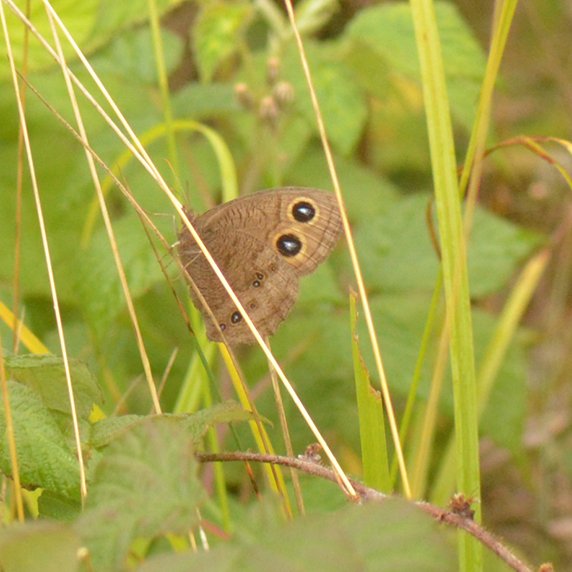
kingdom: Animalia
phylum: Arthropoda
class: Insecta
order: Lepidoptera
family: Nymphalidae
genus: Cercyonis
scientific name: Cercyonis pegala
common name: Common Wood-Nymph
